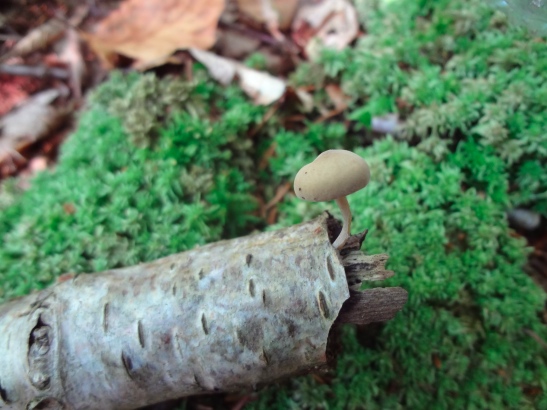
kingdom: Fungi
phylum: Basidiomycota
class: Agaricomycetes
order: Agaricales
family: Crepidotaceae
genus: Simocybe
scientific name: Simocybe centunculus
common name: enlig skyggehat
